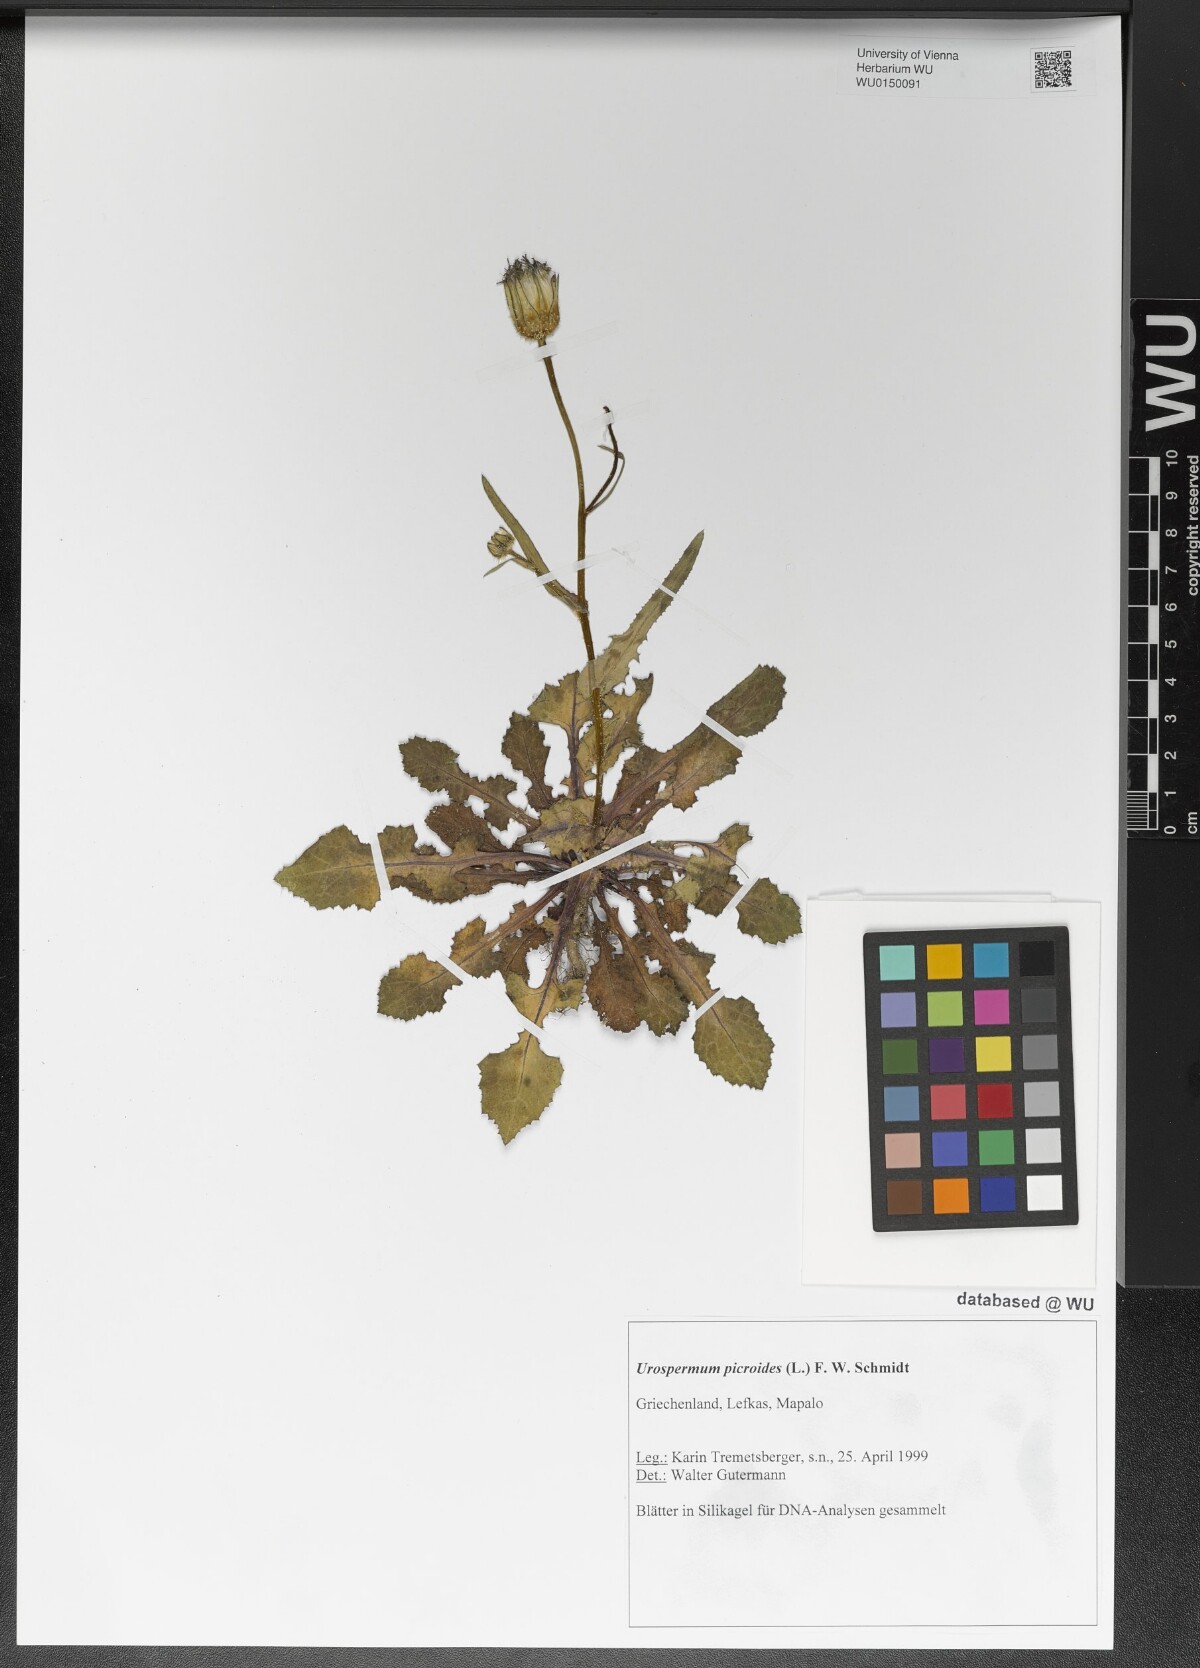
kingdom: Plantae
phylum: Tracheophyta
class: Magnoliopsida
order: Asterales
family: Asteraceae
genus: Urospermum
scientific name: Urospermum picroides
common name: False hawkbit
